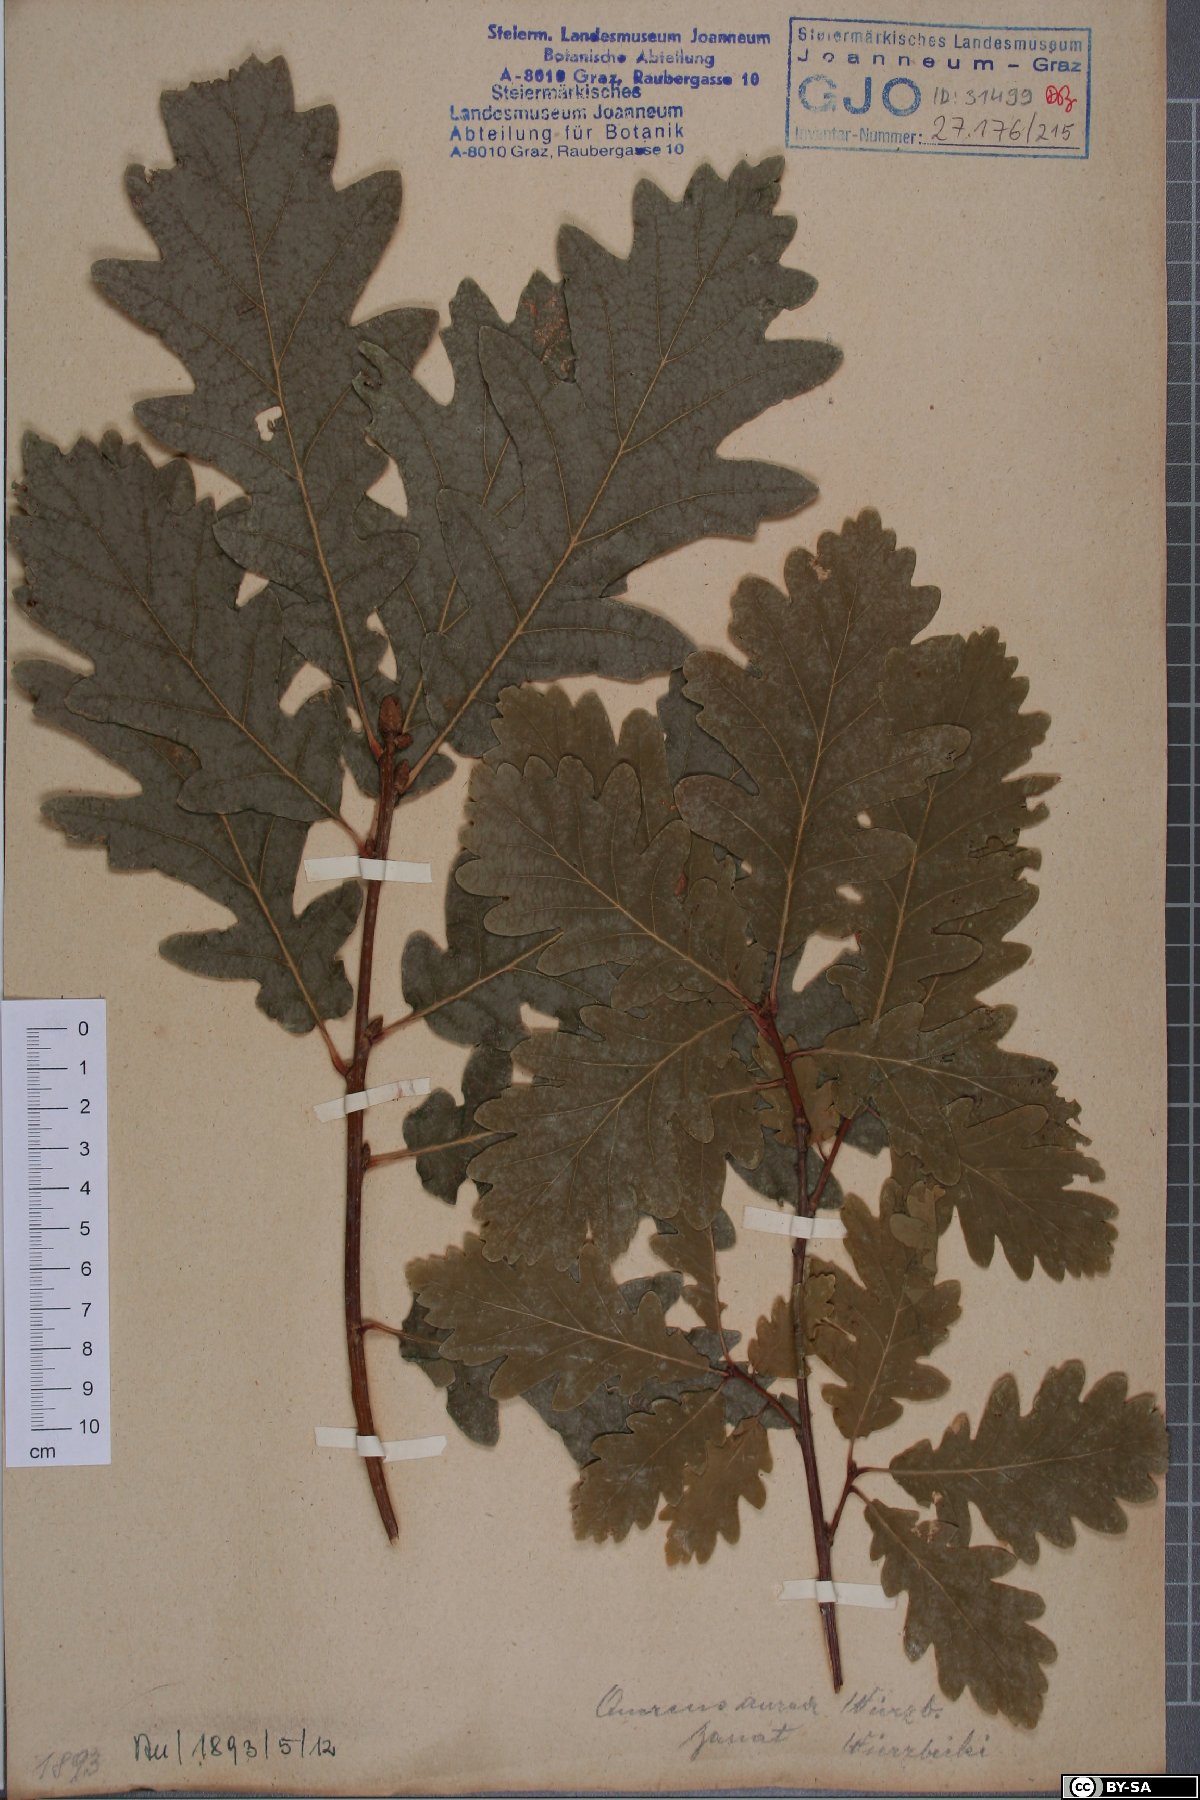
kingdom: Plantae
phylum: Tracheophyta
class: Magnoliopsida
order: Fagales
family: Fagaceae
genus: Quercus
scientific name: Quercus dalechampii
